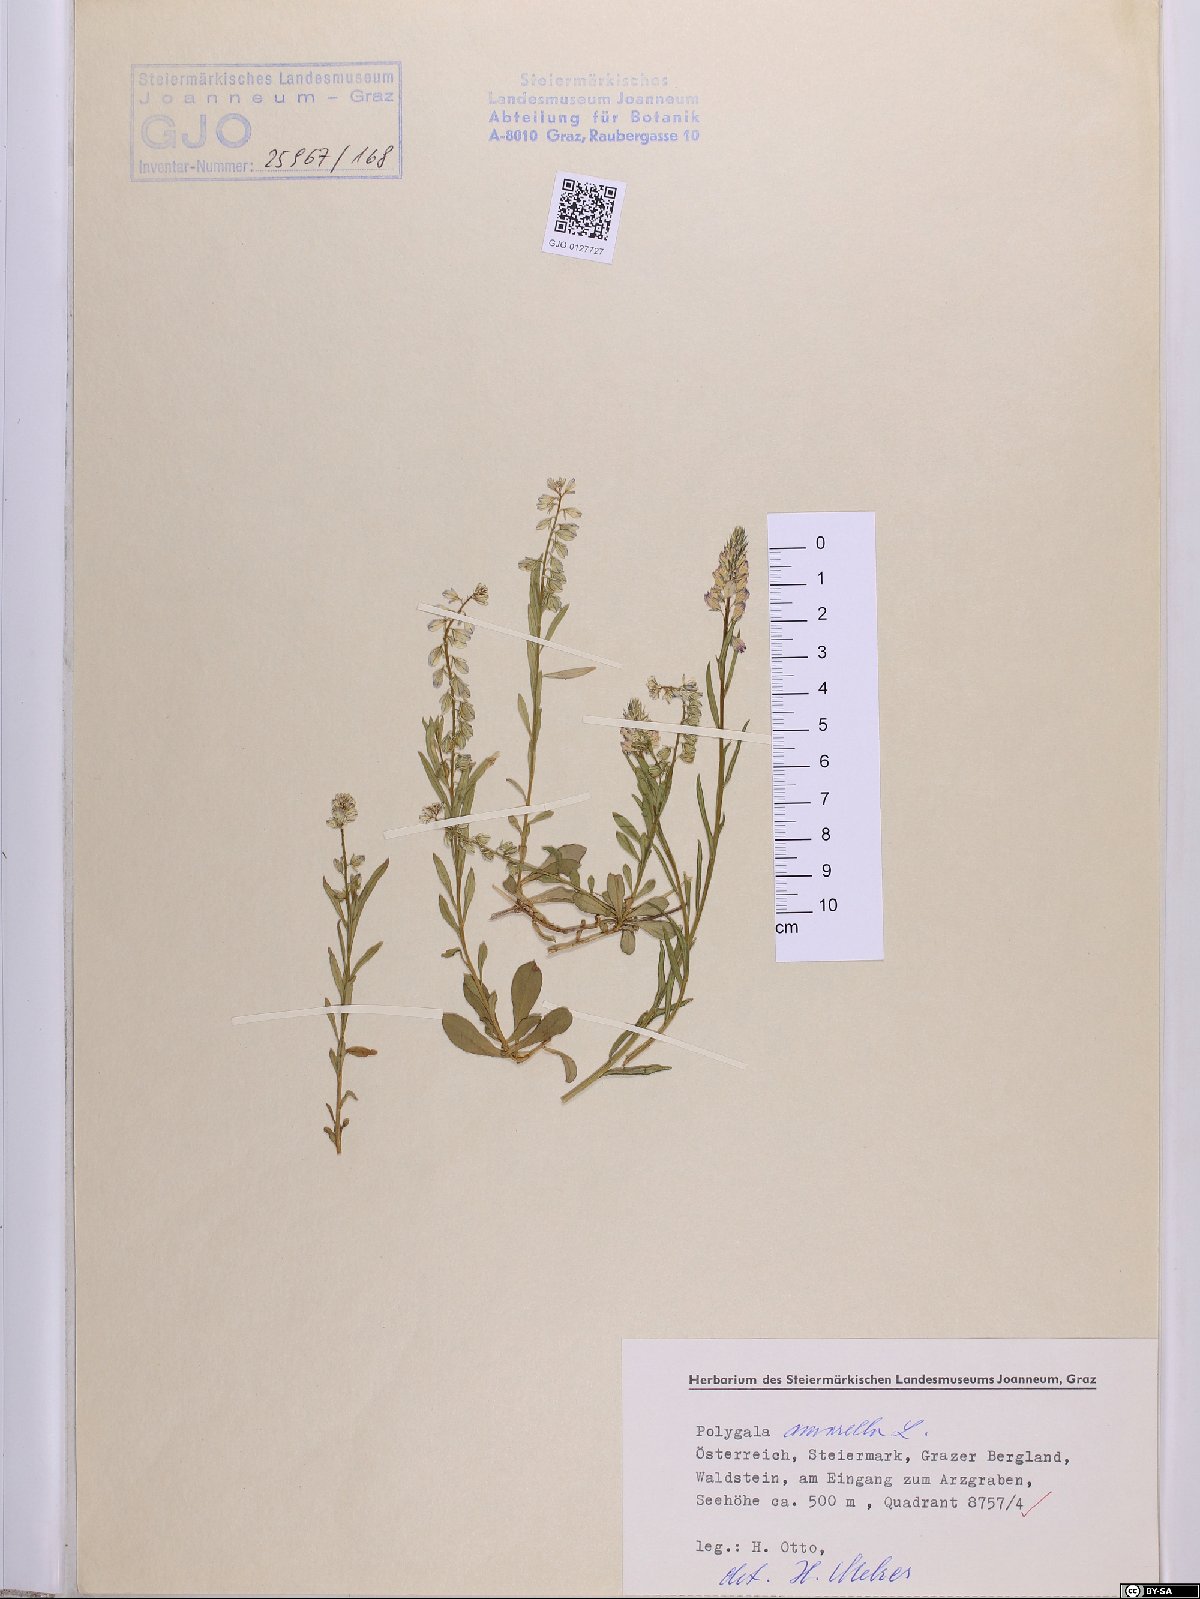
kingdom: Plantae
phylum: Tracheophyta
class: Magnoliopsida
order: Fabales
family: Polygalaceae
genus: Polygala
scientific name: Polygala amarella
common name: Dwarf milkwort
